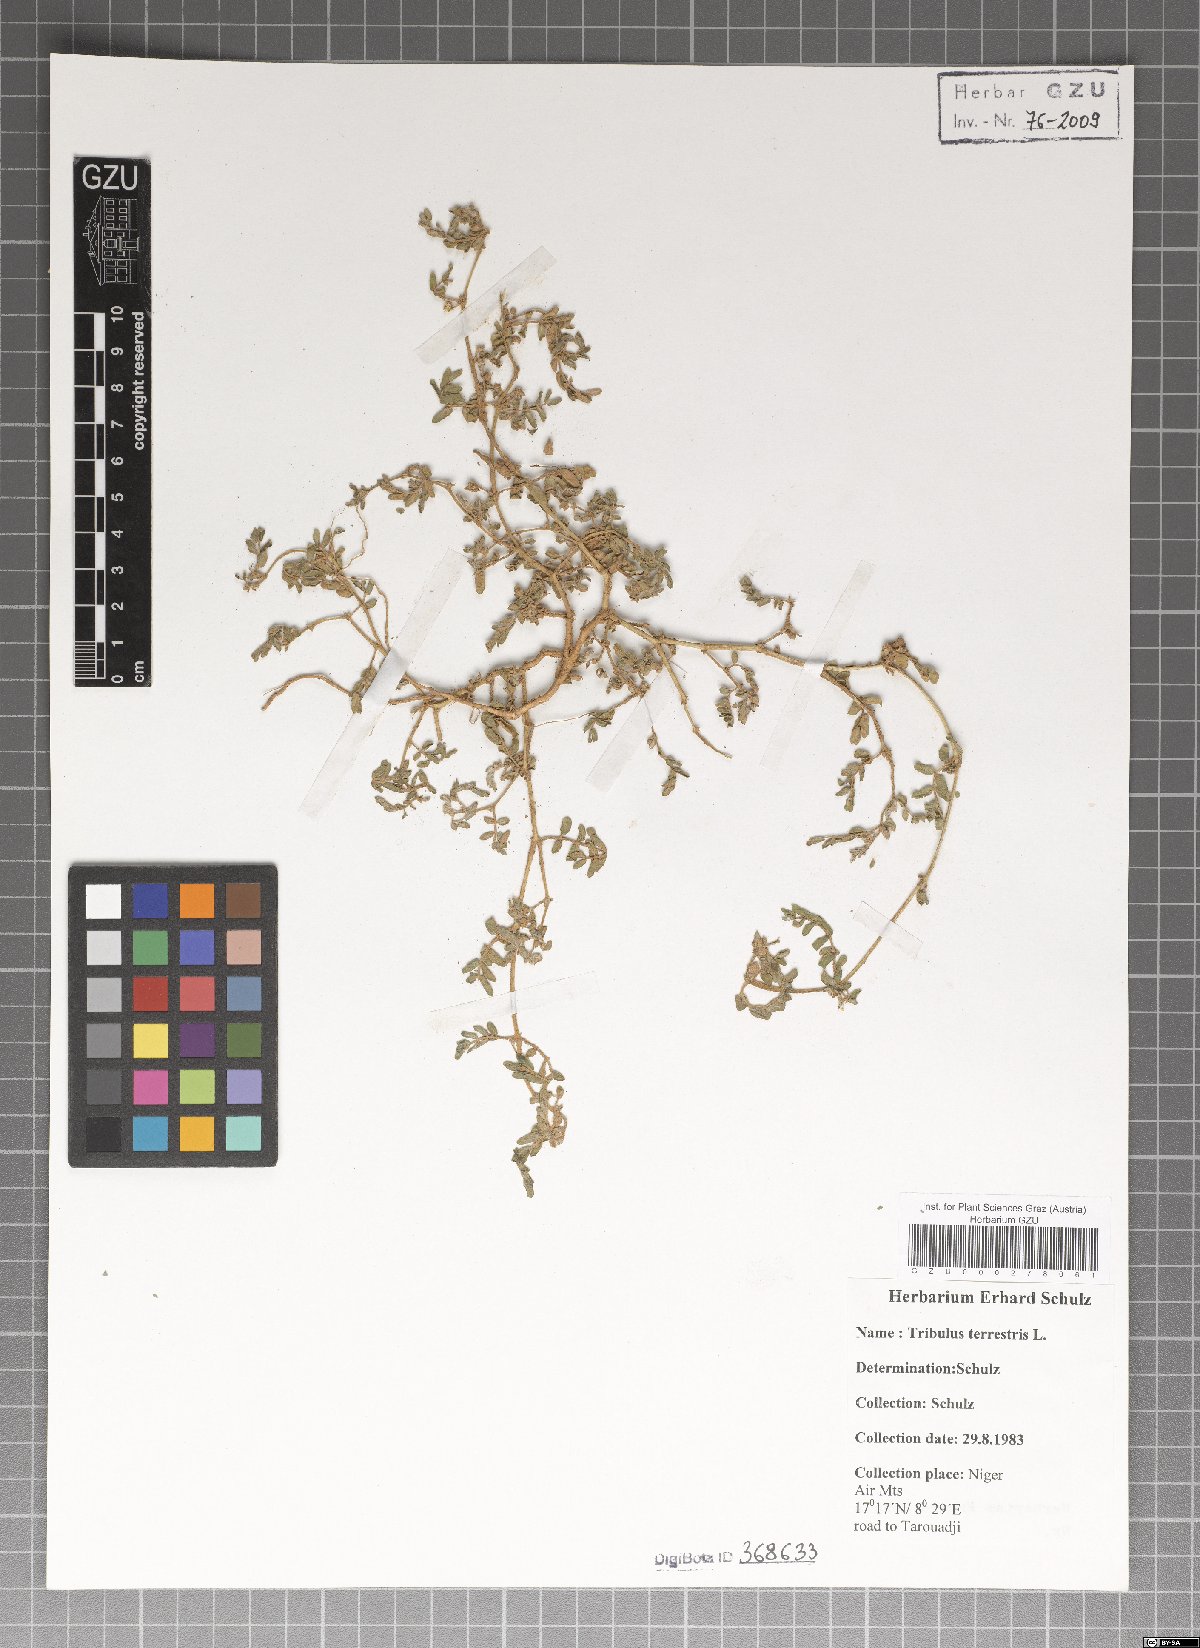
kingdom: Plantae
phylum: Tracheophyta
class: Magnoliopsida
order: Zygophyllales
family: Zygophyllaceae
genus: Tribulus
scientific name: Tribulus terrestris
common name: Puncturevine
